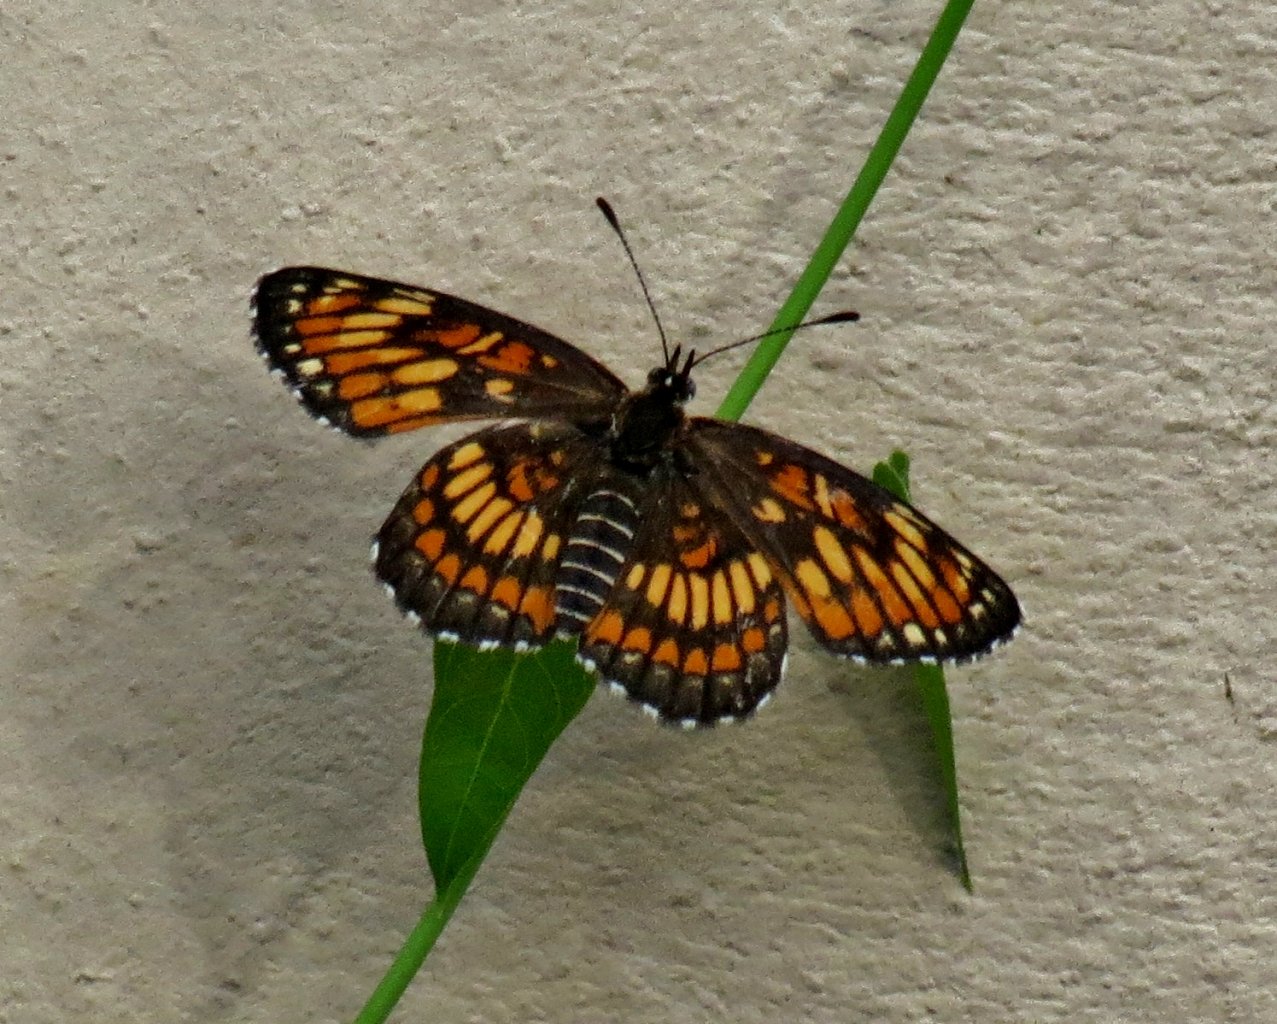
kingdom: Animalia
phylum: Arthropoda
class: Insecta
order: Lepidoptera
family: Nymphalidae
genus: Thessalia
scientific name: Thessalia theona
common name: Theona Checkerspot
